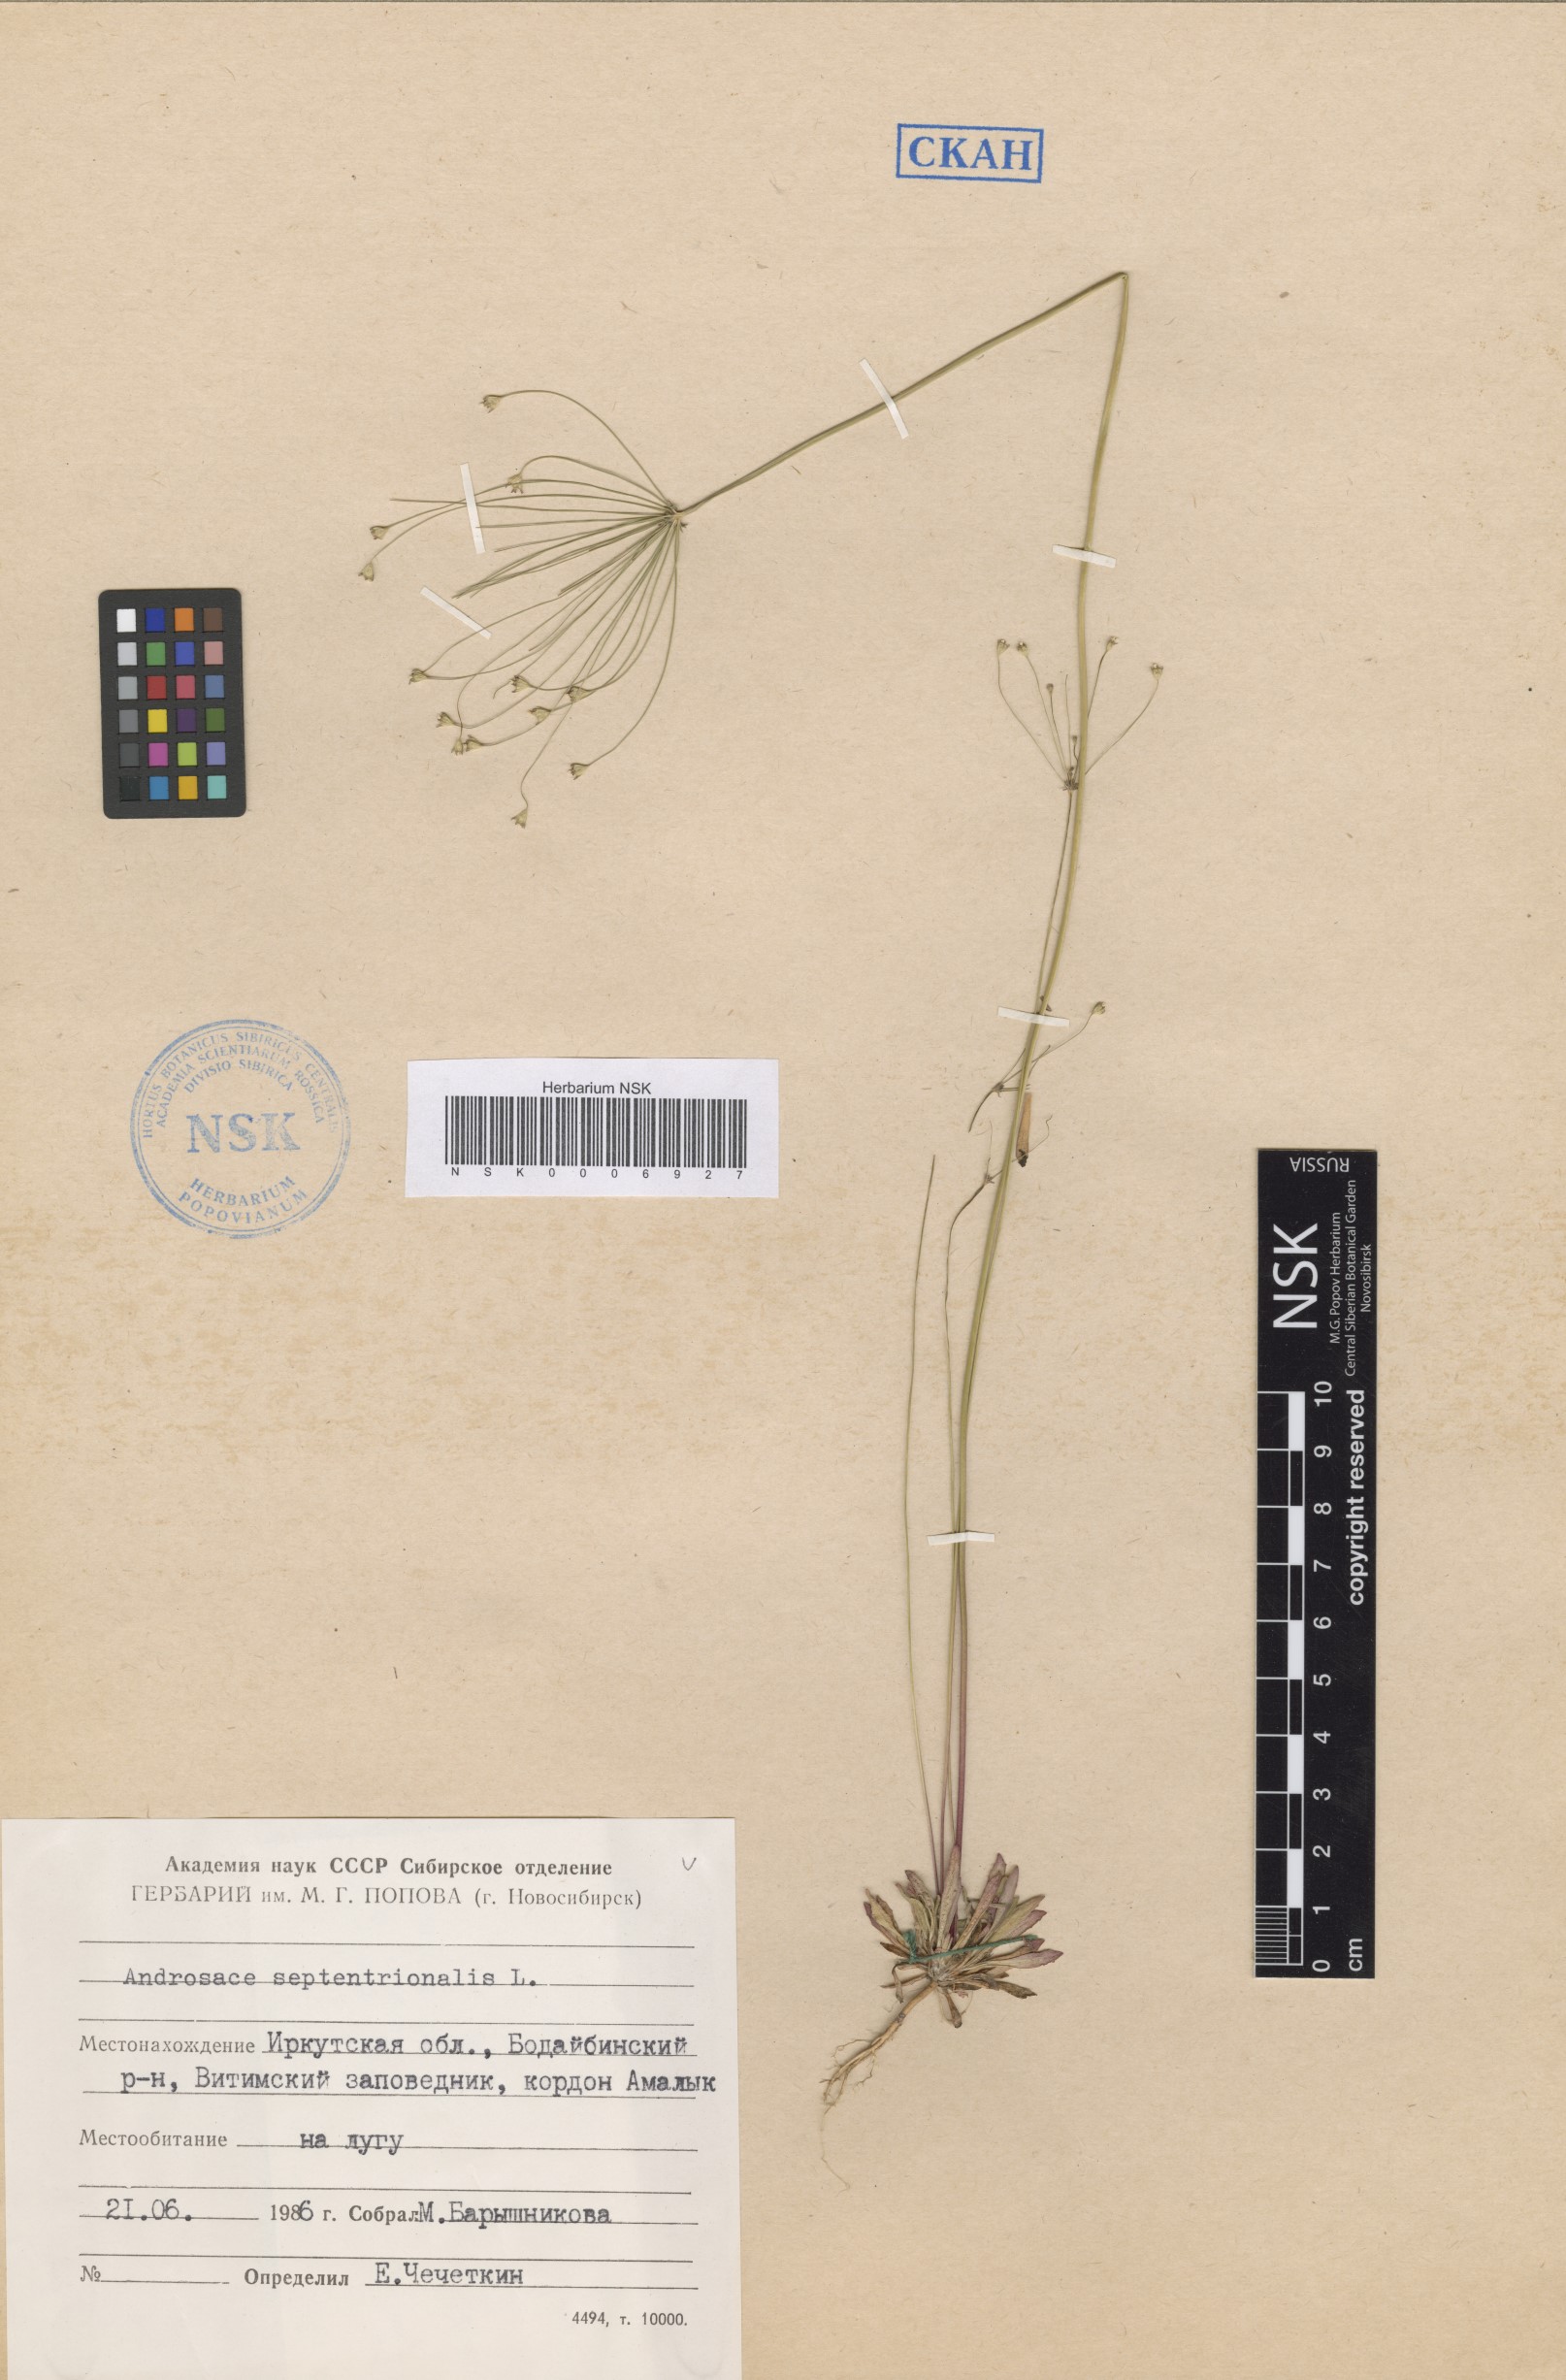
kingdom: Plantae
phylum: Tracheophyta
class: Magnoliopsida
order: Ericales
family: Primulaceae
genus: Androsace
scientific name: Androsace septentrionalis
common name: Hairy northern fairy-candelabra
